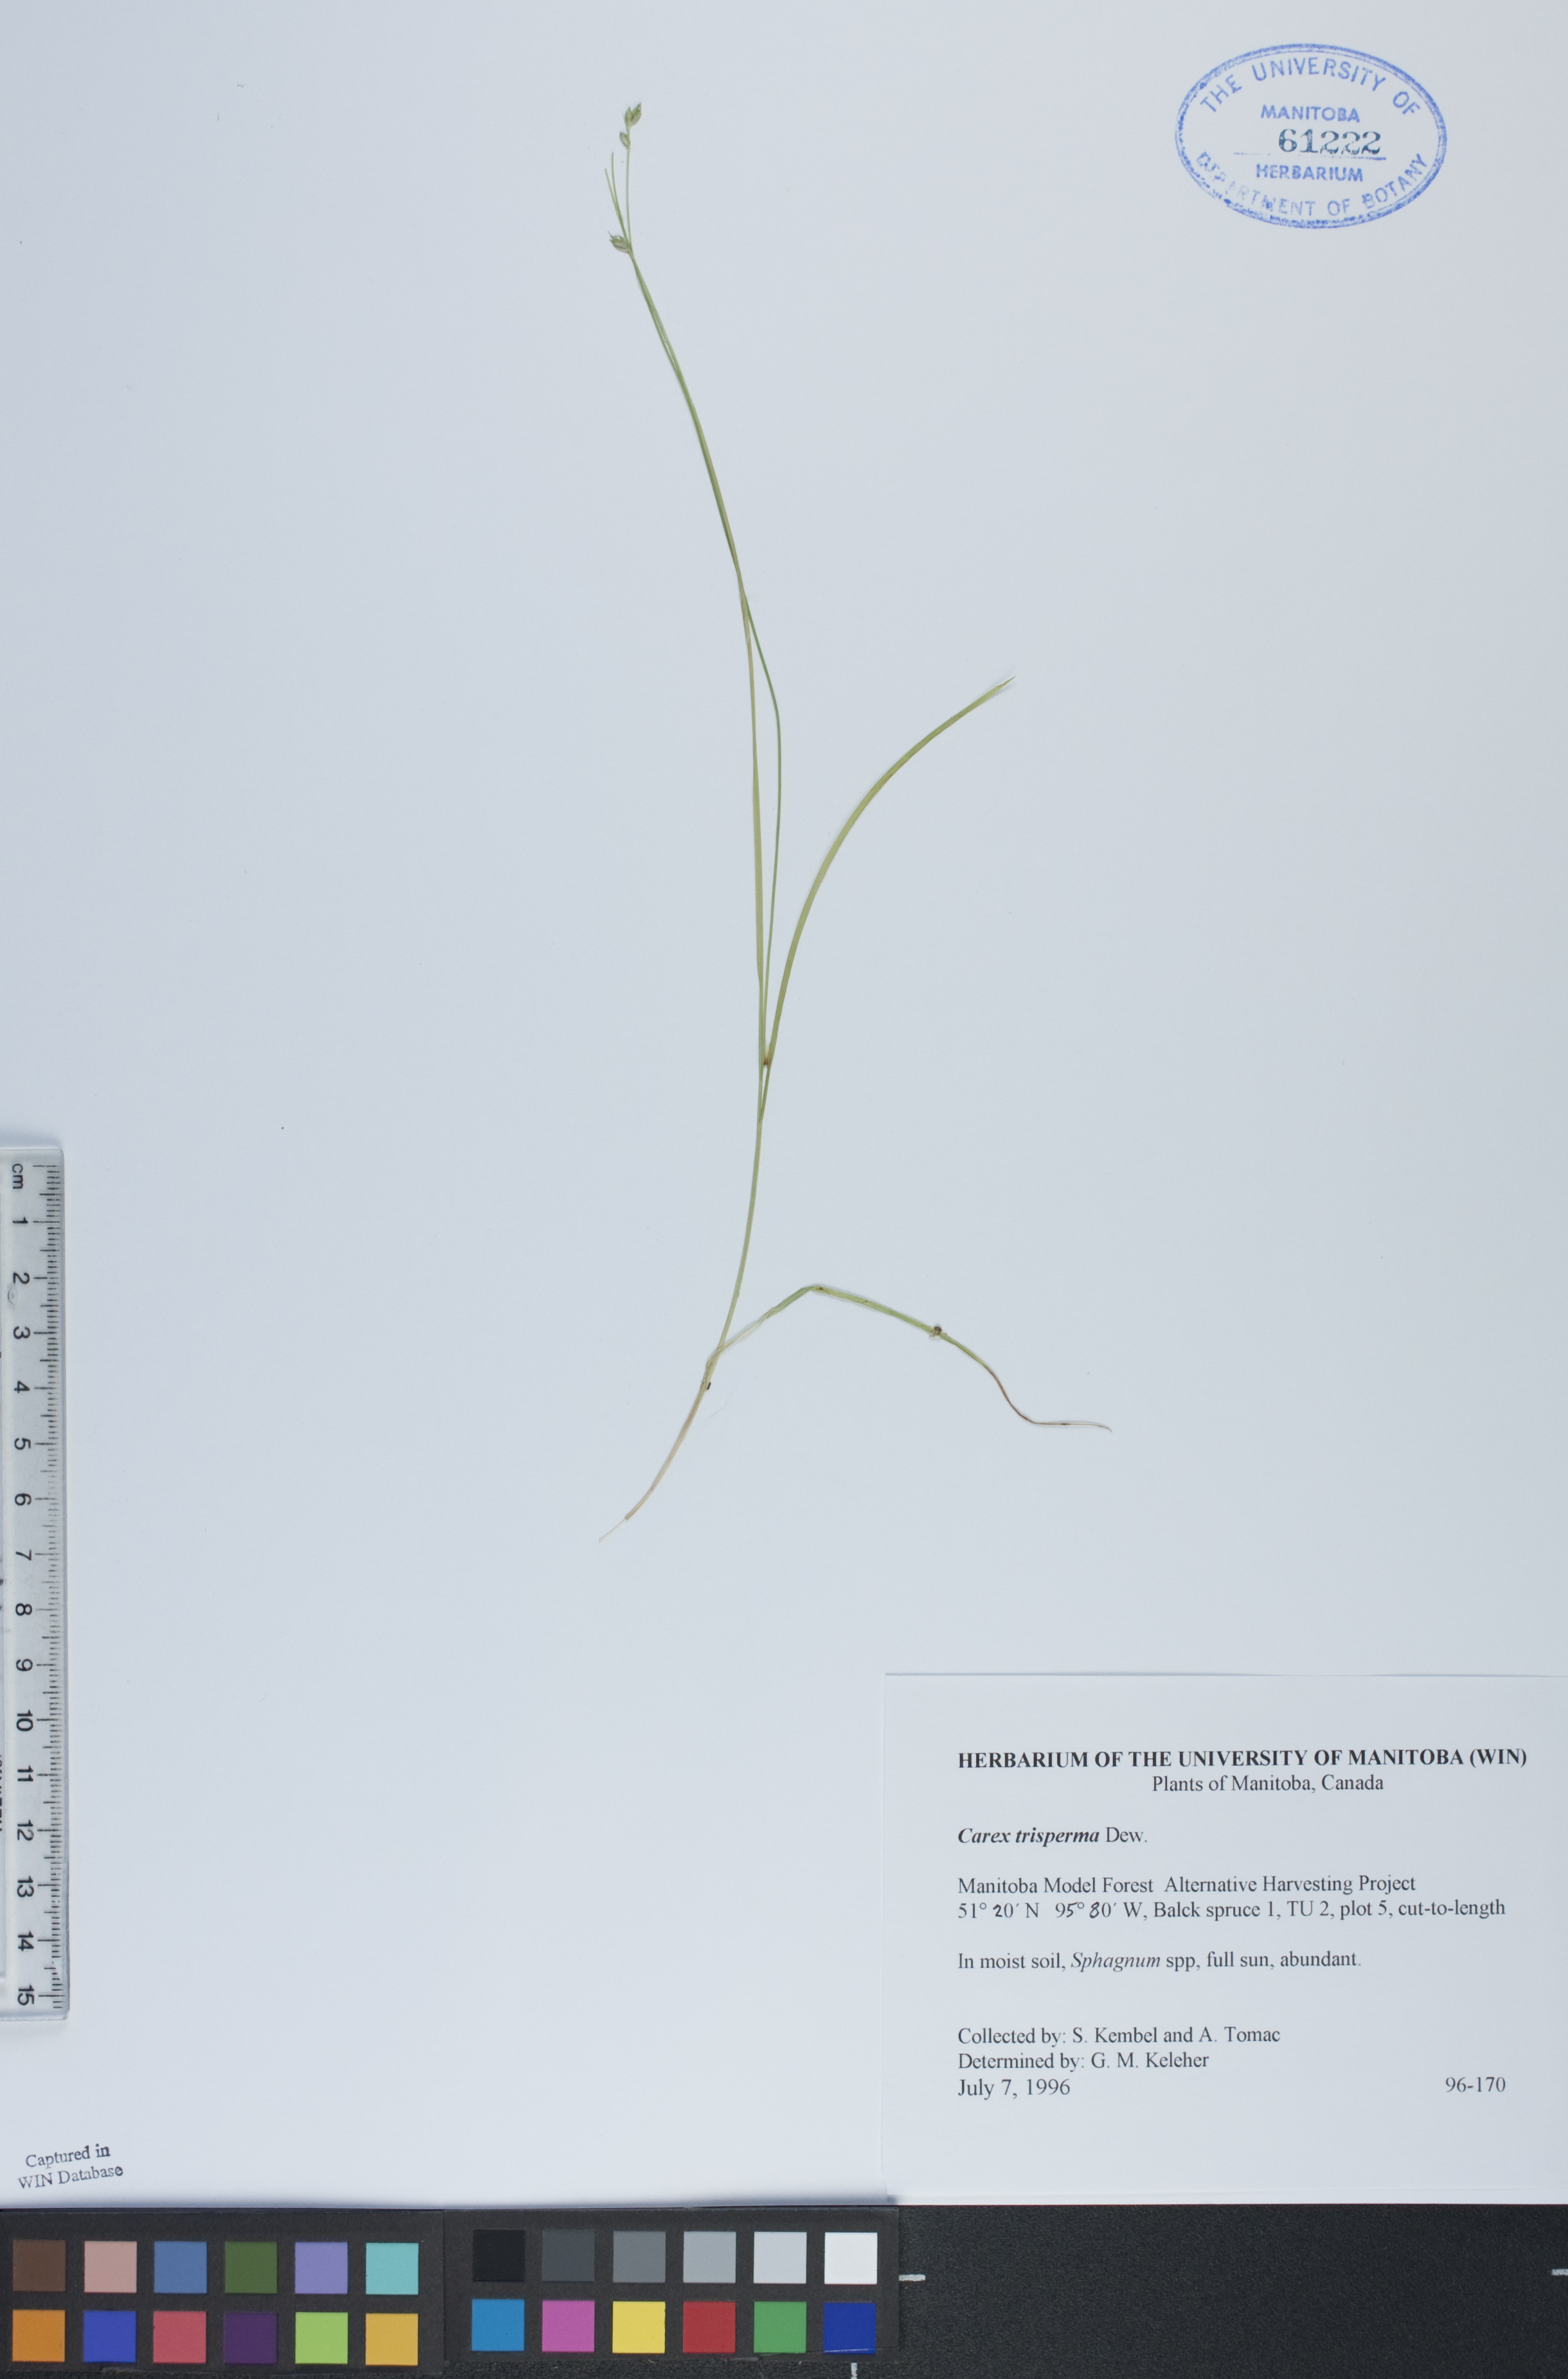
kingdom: Plantae
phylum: Tracheophyta
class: Liliopsida
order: Poales
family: Cyperaceae
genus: Carex
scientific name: Carex trisperma
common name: Three-seeded sedge
